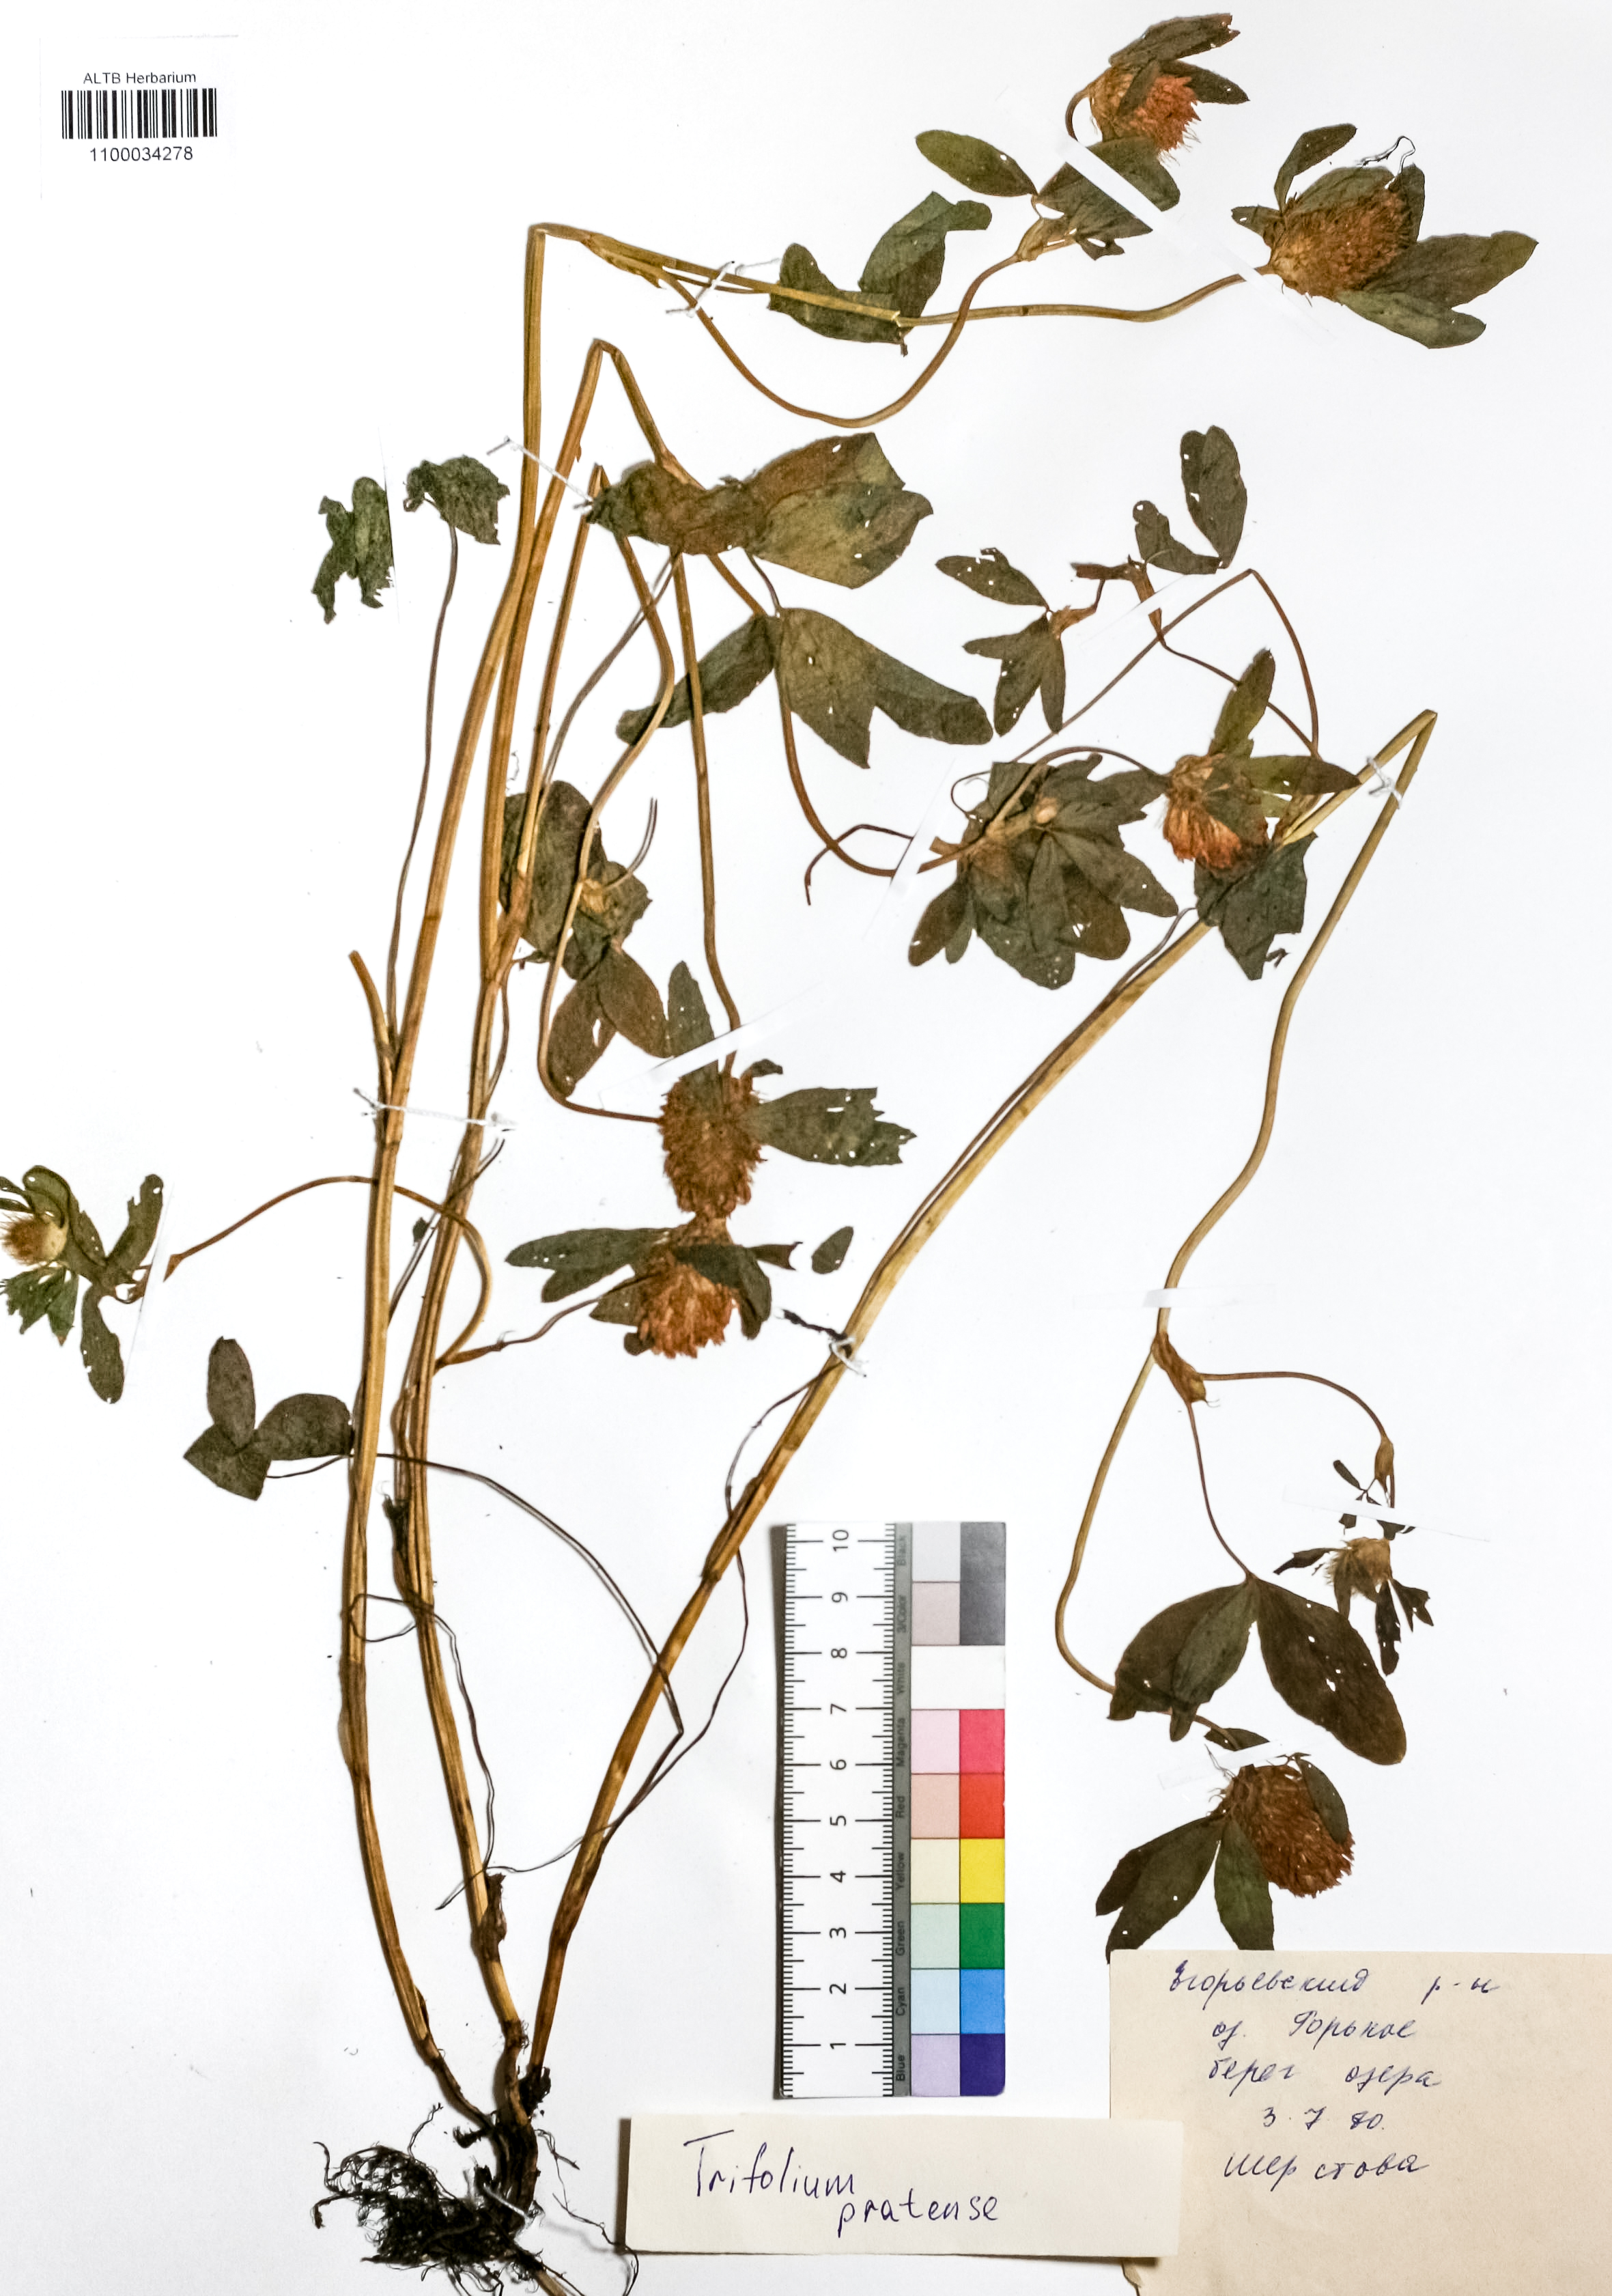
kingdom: Plantae
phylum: Tracheophyta
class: Magnoliopsida
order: Fabales
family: Fabaceae
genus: Trifolium
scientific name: Trifolium pratense
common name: Red clover
